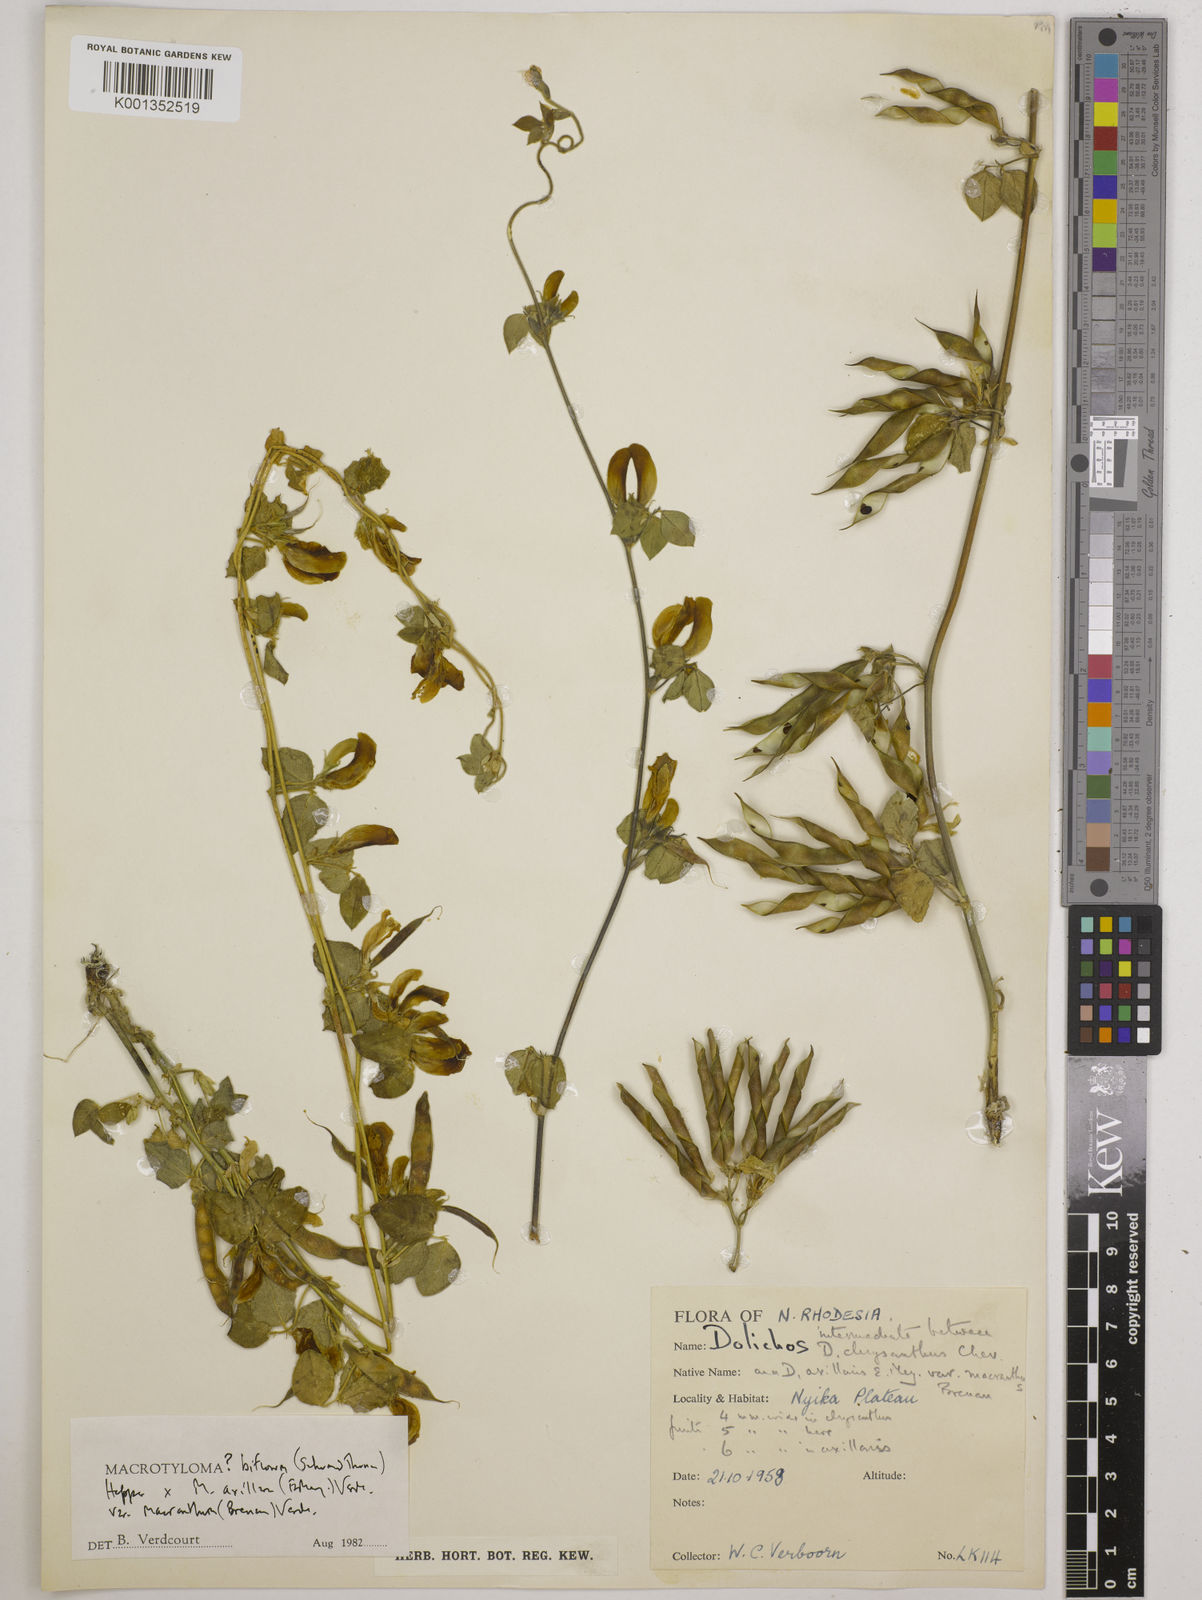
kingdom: Plantae
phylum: Tracheophyta
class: Magnoliopsida
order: Fabales
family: Fabaceae
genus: Macrotyloma
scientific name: Macrotyloma
